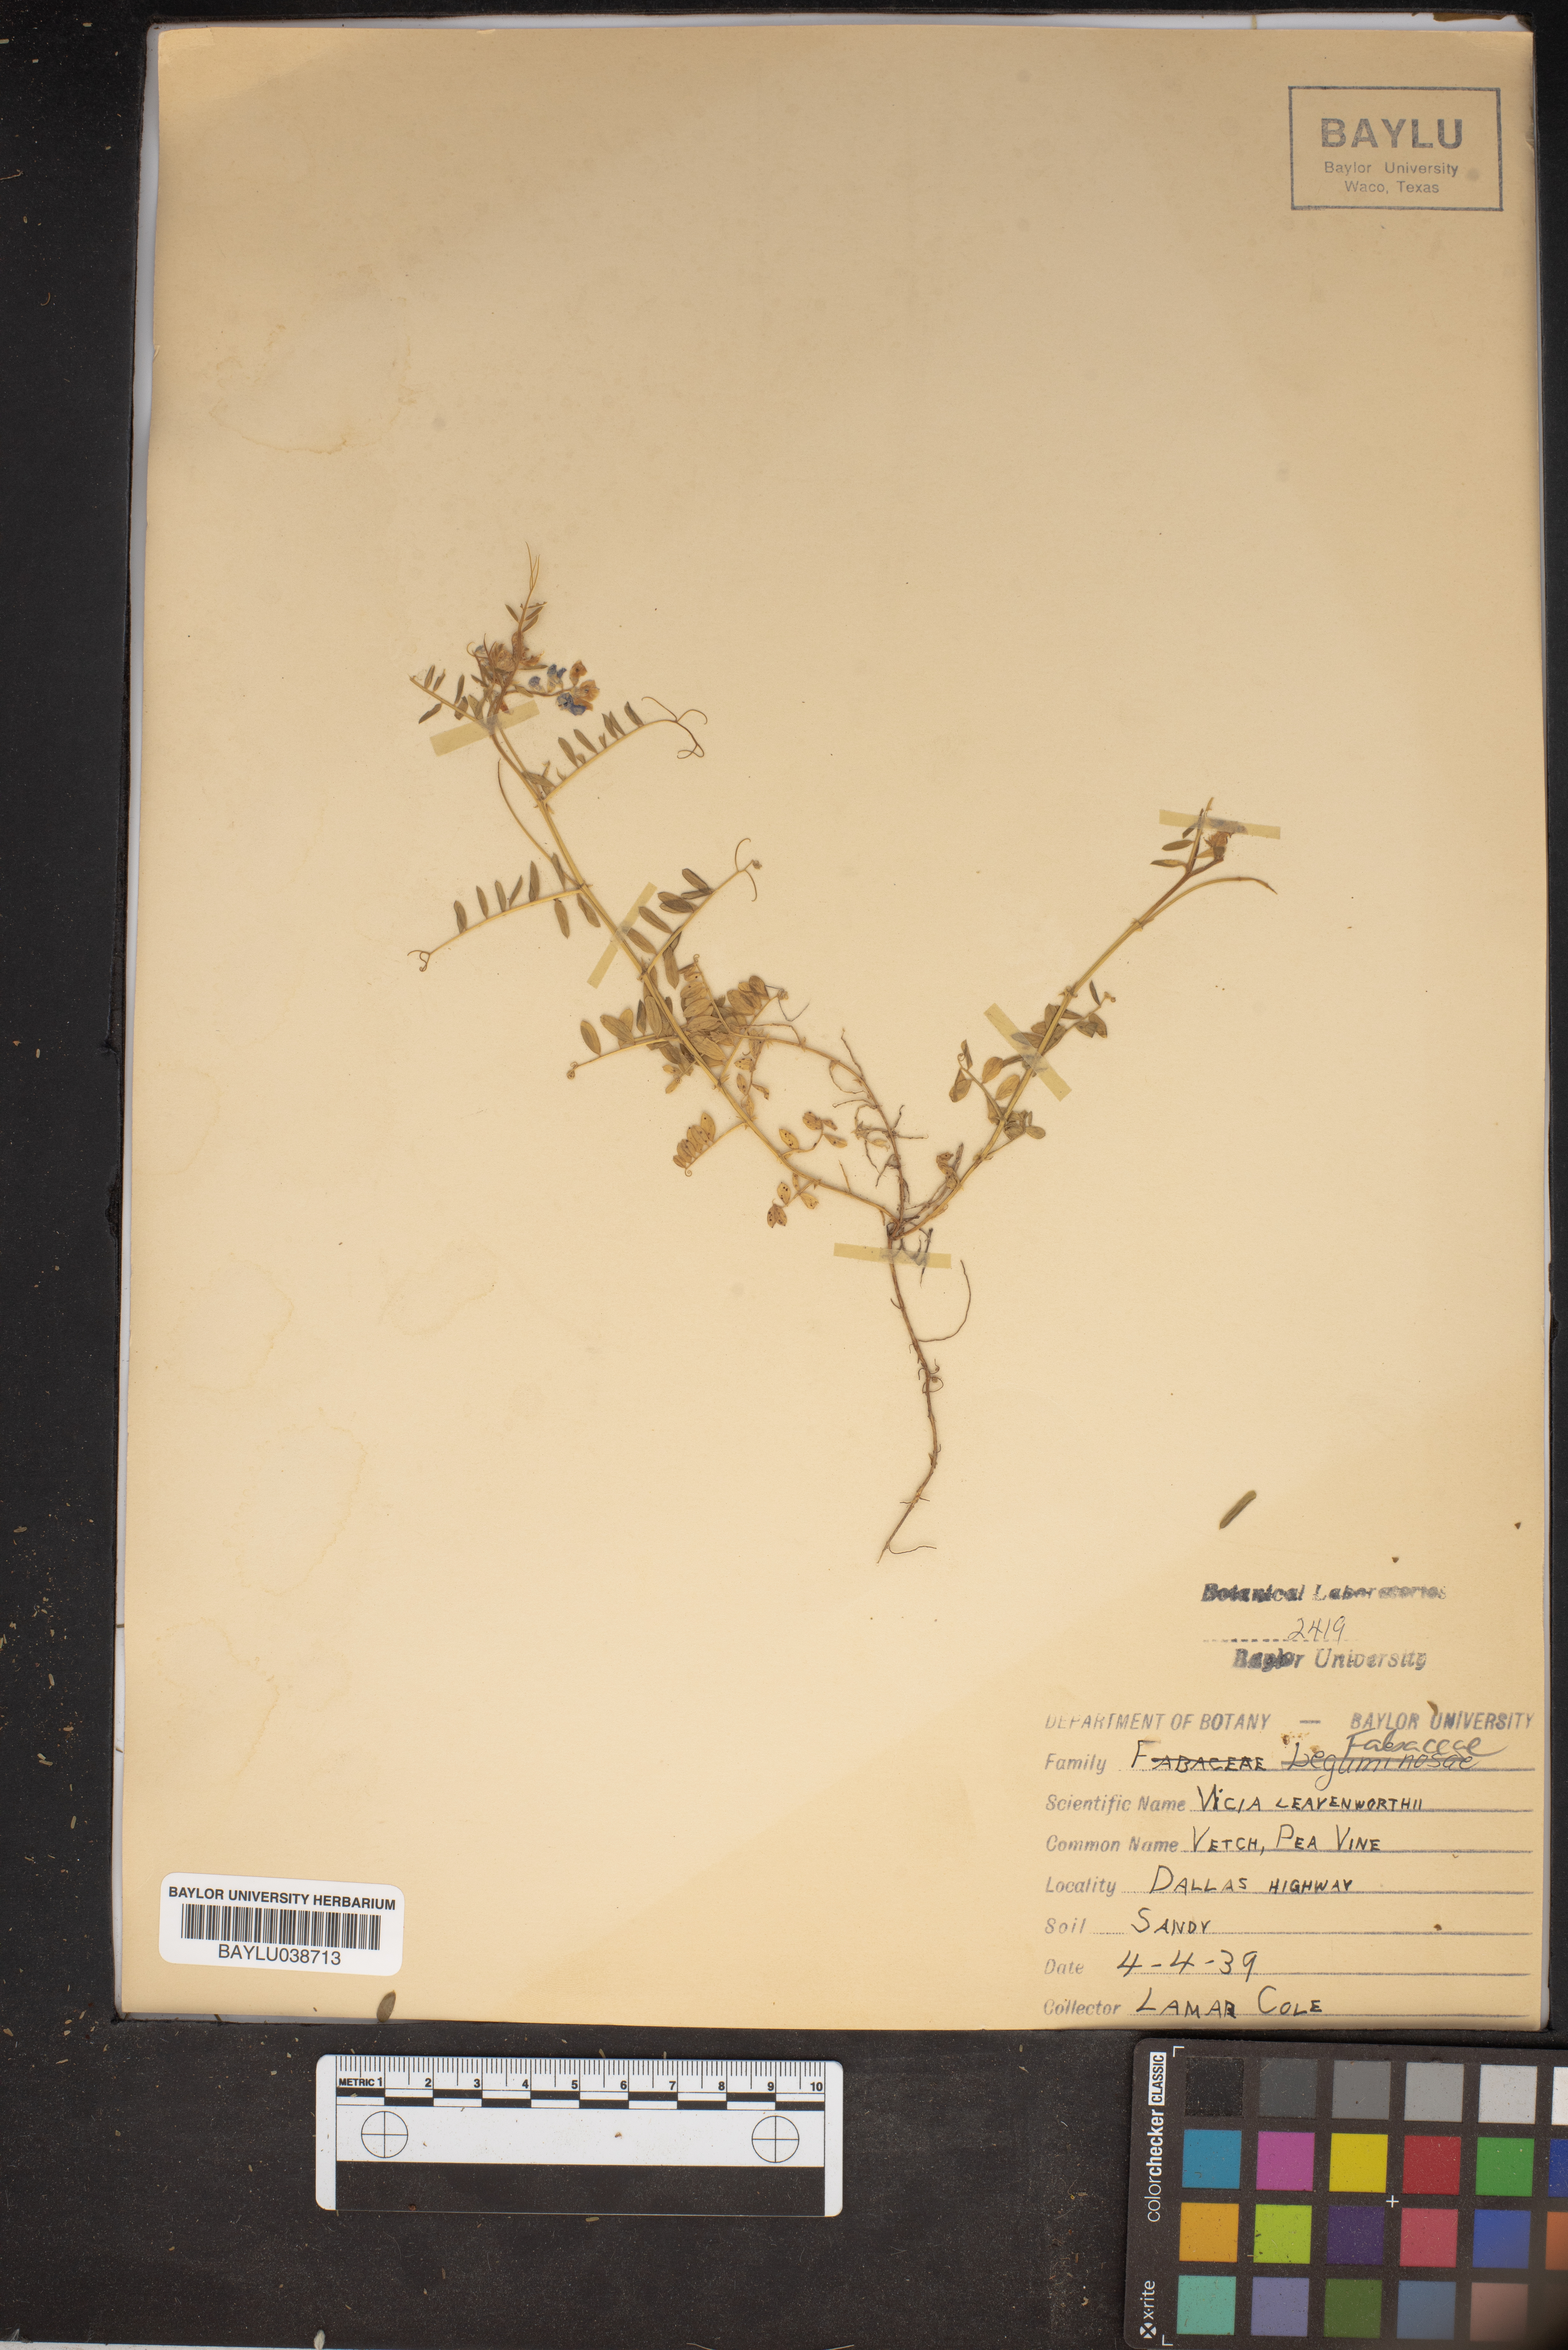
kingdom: Plantae
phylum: Tracheophyta
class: Magnoliopsida
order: Fabales
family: Fabaceae
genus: Vicia
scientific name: Vicia ludoviciana
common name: Louisiana vetch
